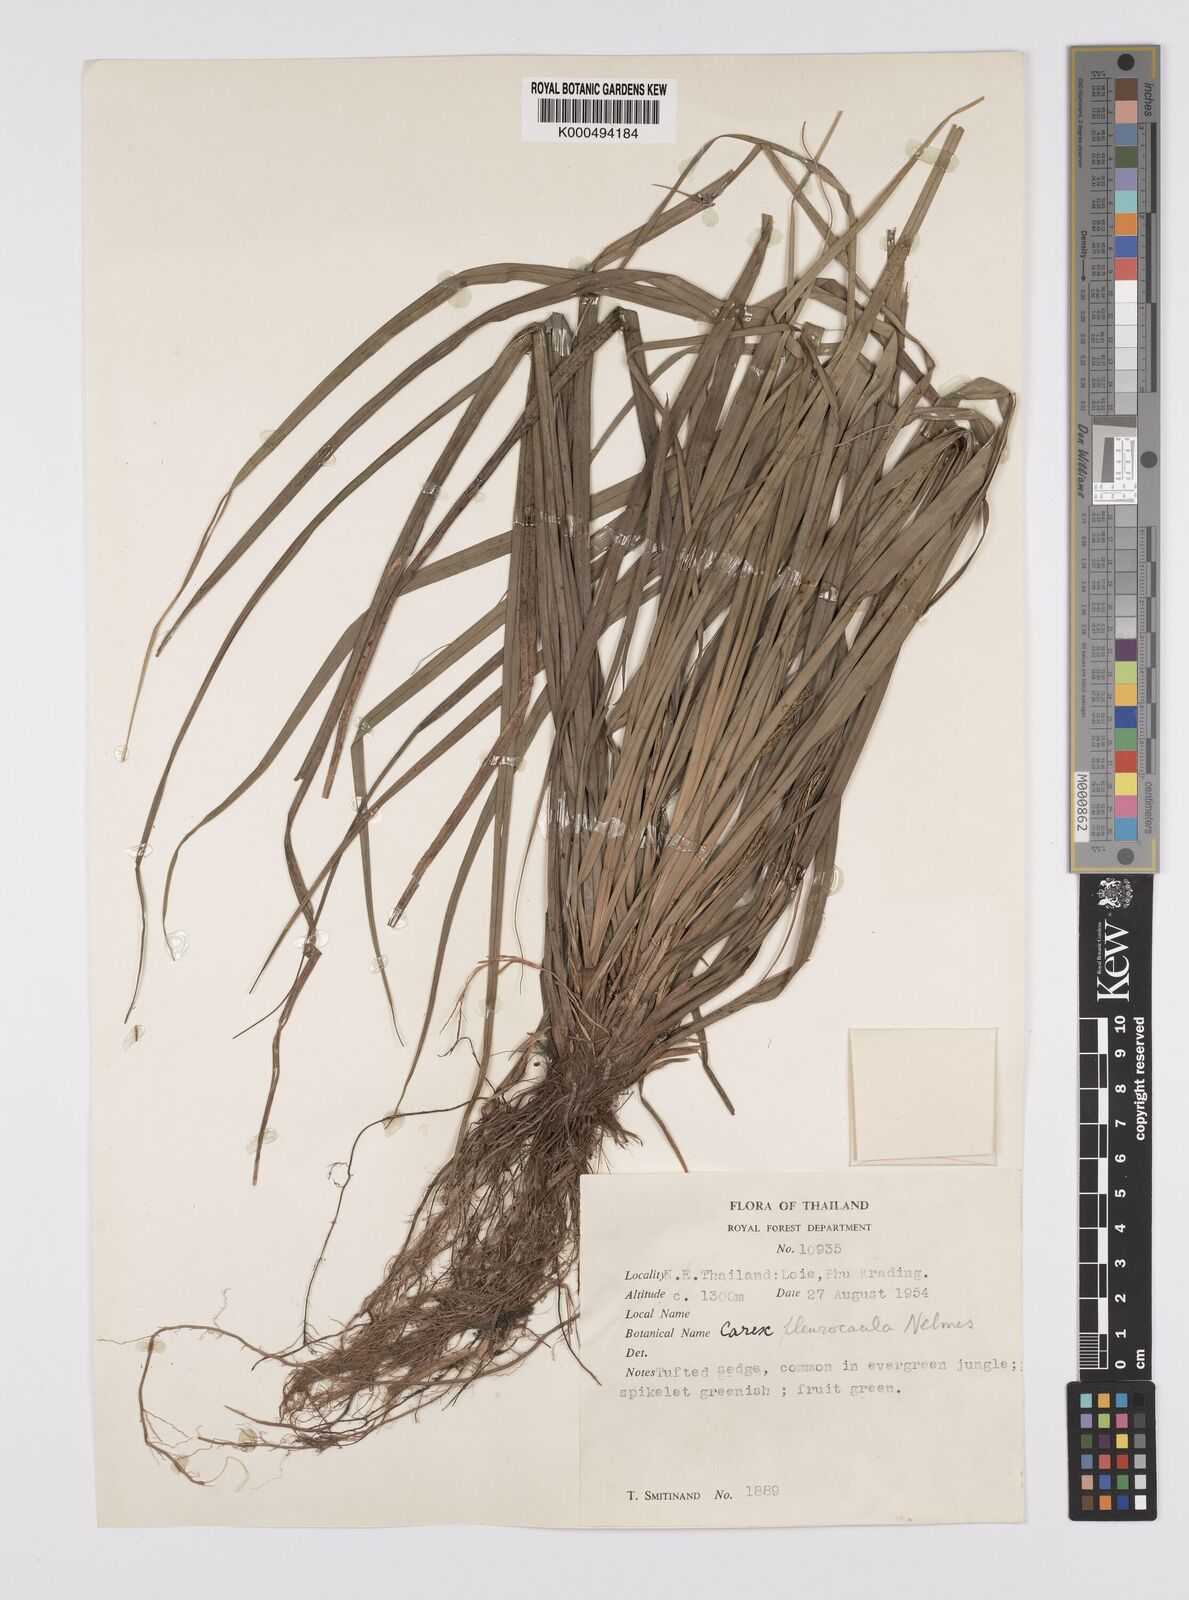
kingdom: Plantae
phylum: Tracheophyta
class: Liliopsida
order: Poales
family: Cyperaceae
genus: Carex
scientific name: Carex pleurocaula
